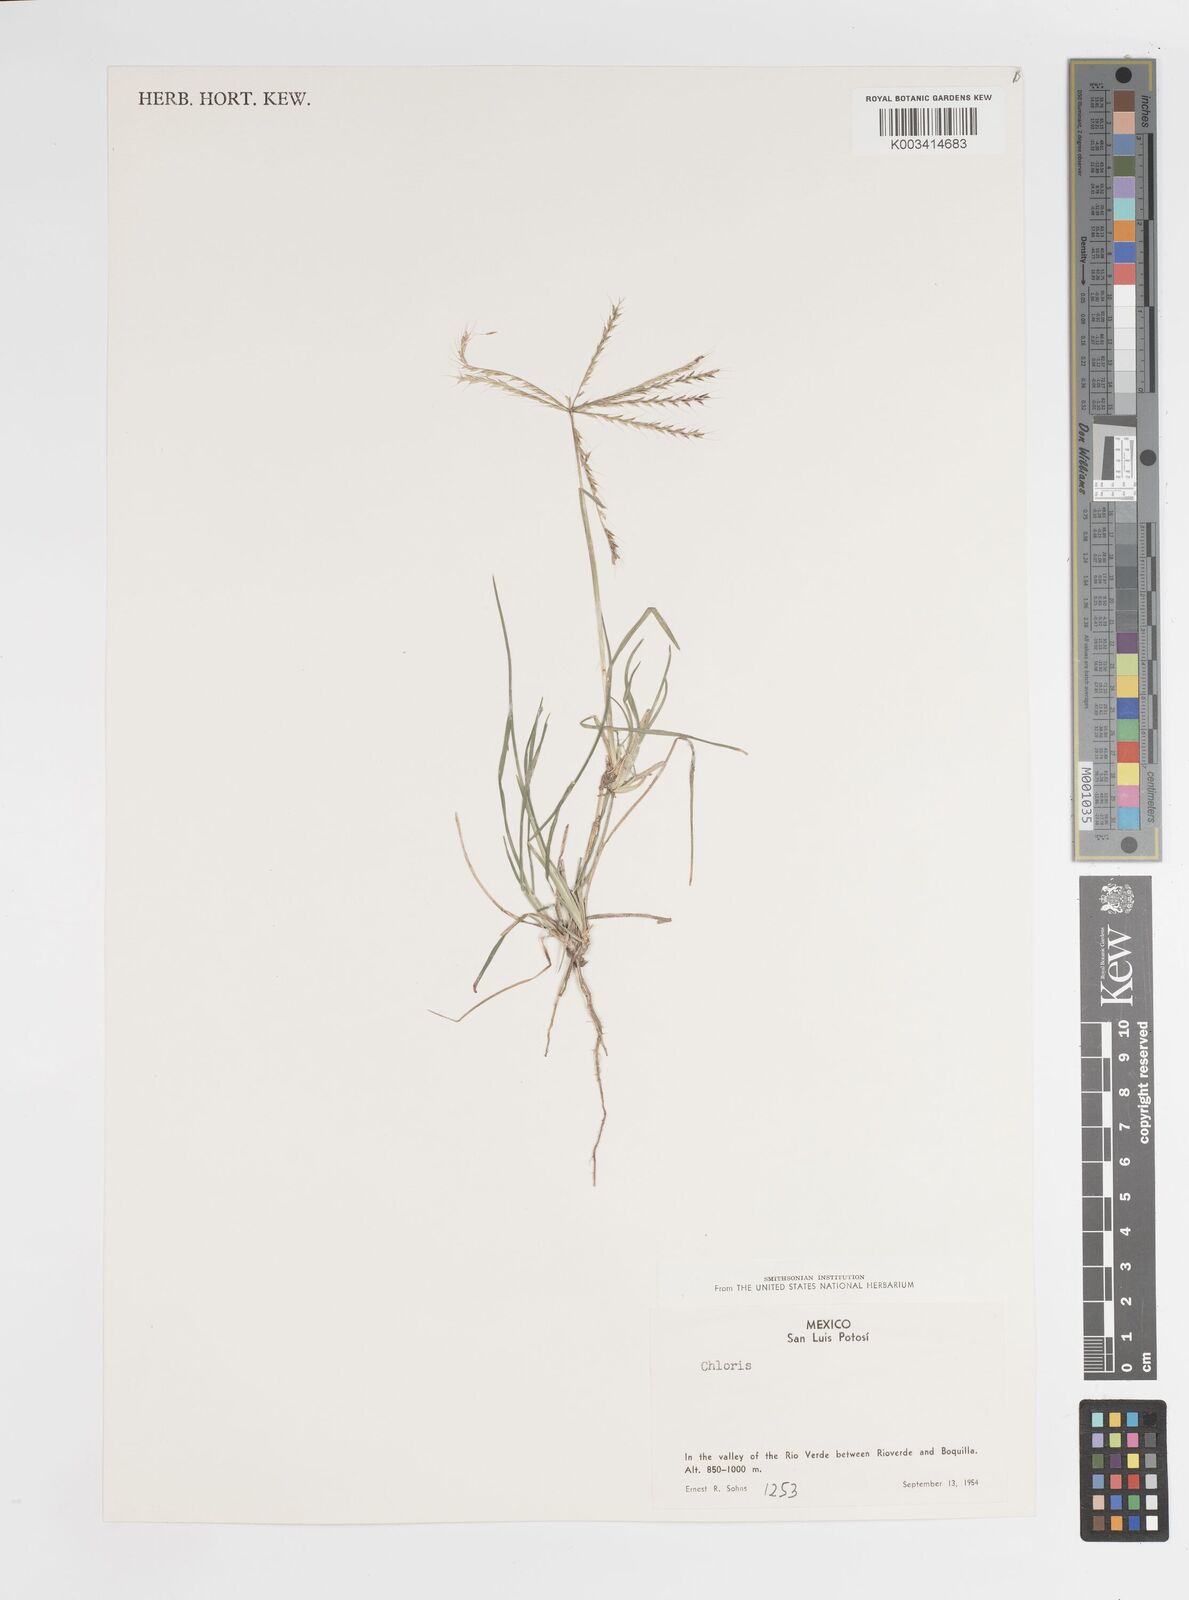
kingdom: Plantae
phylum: Tracheophyta
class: Liliopsida
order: Poales
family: Poaceae
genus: Chloris
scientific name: Chloris rufescens
